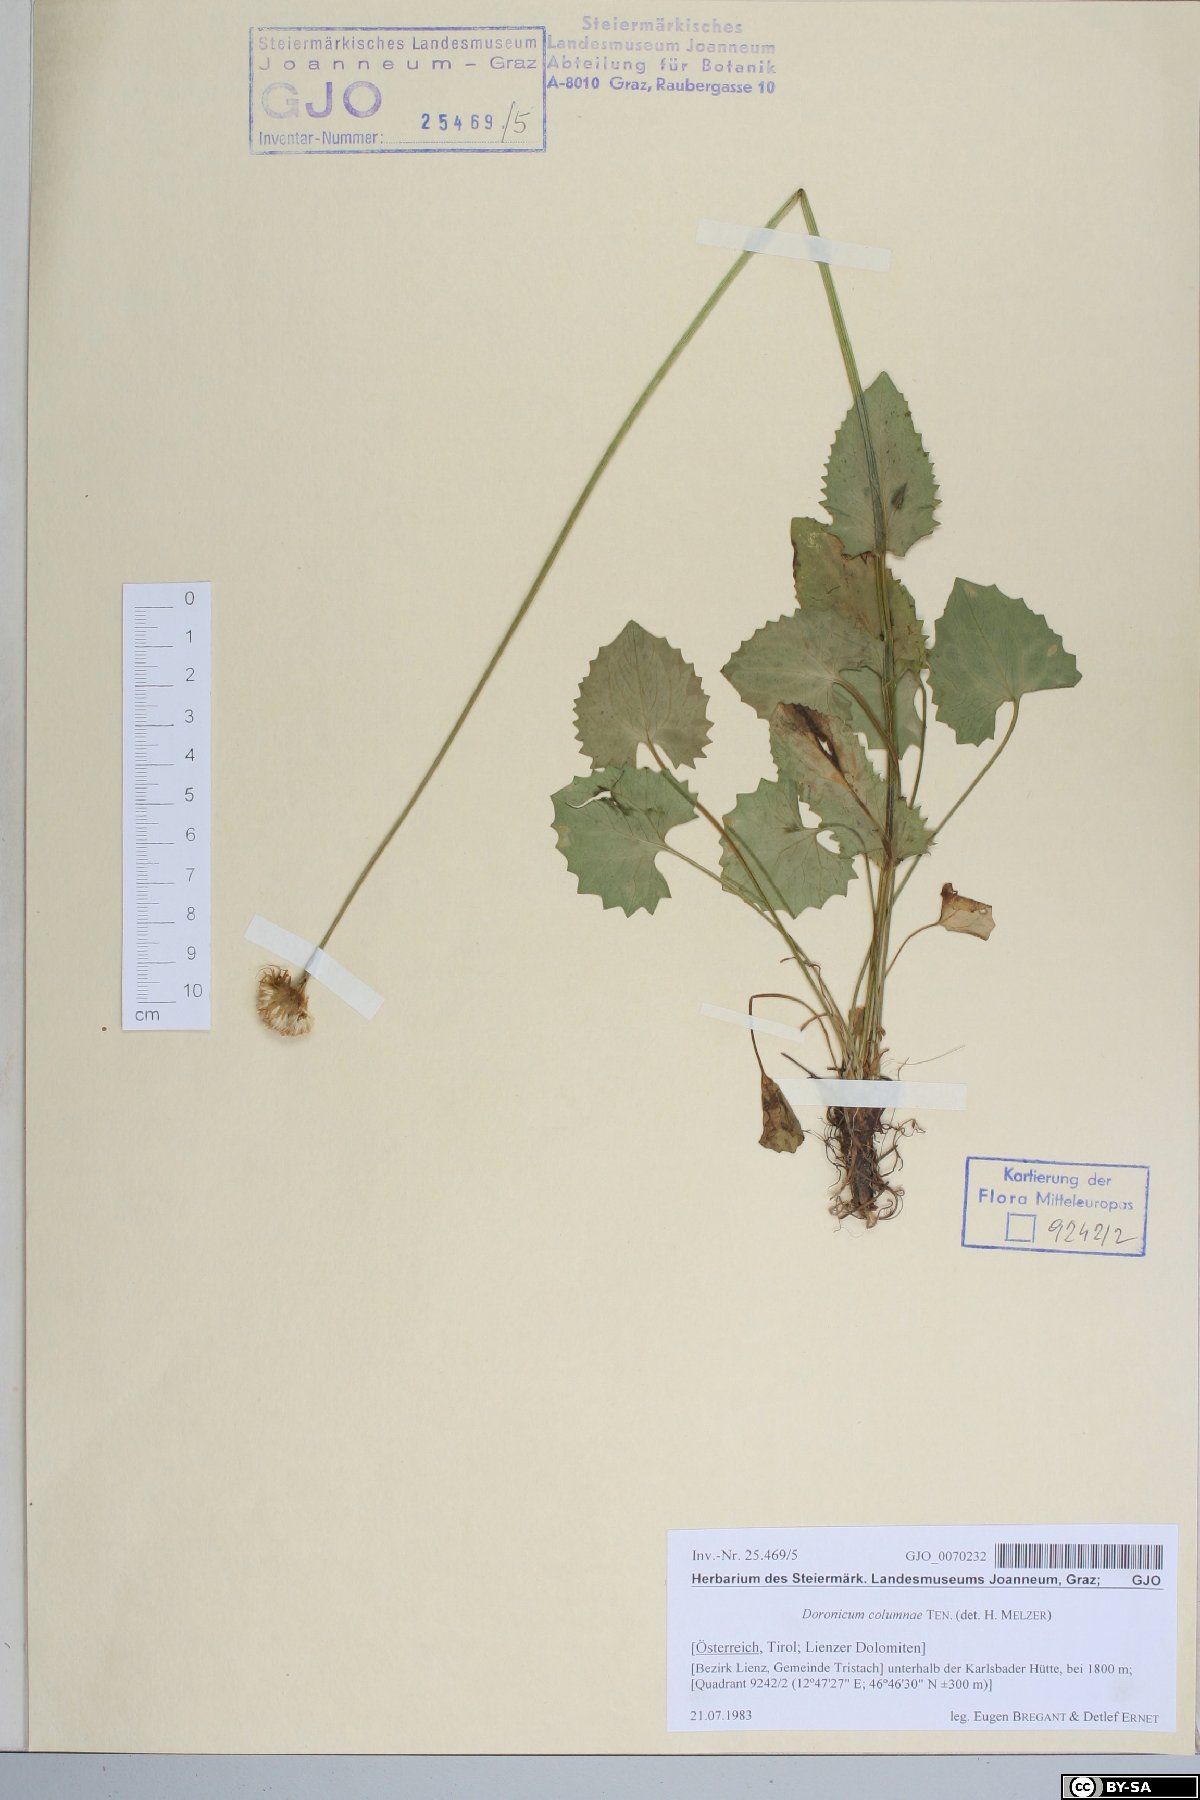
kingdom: Plantae
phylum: Tracheophyta
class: Magnoliopsida
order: Asterales
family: Asteraceae
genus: Doronicum
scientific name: Doronicum columnae
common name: Eastern leopard's-bane
